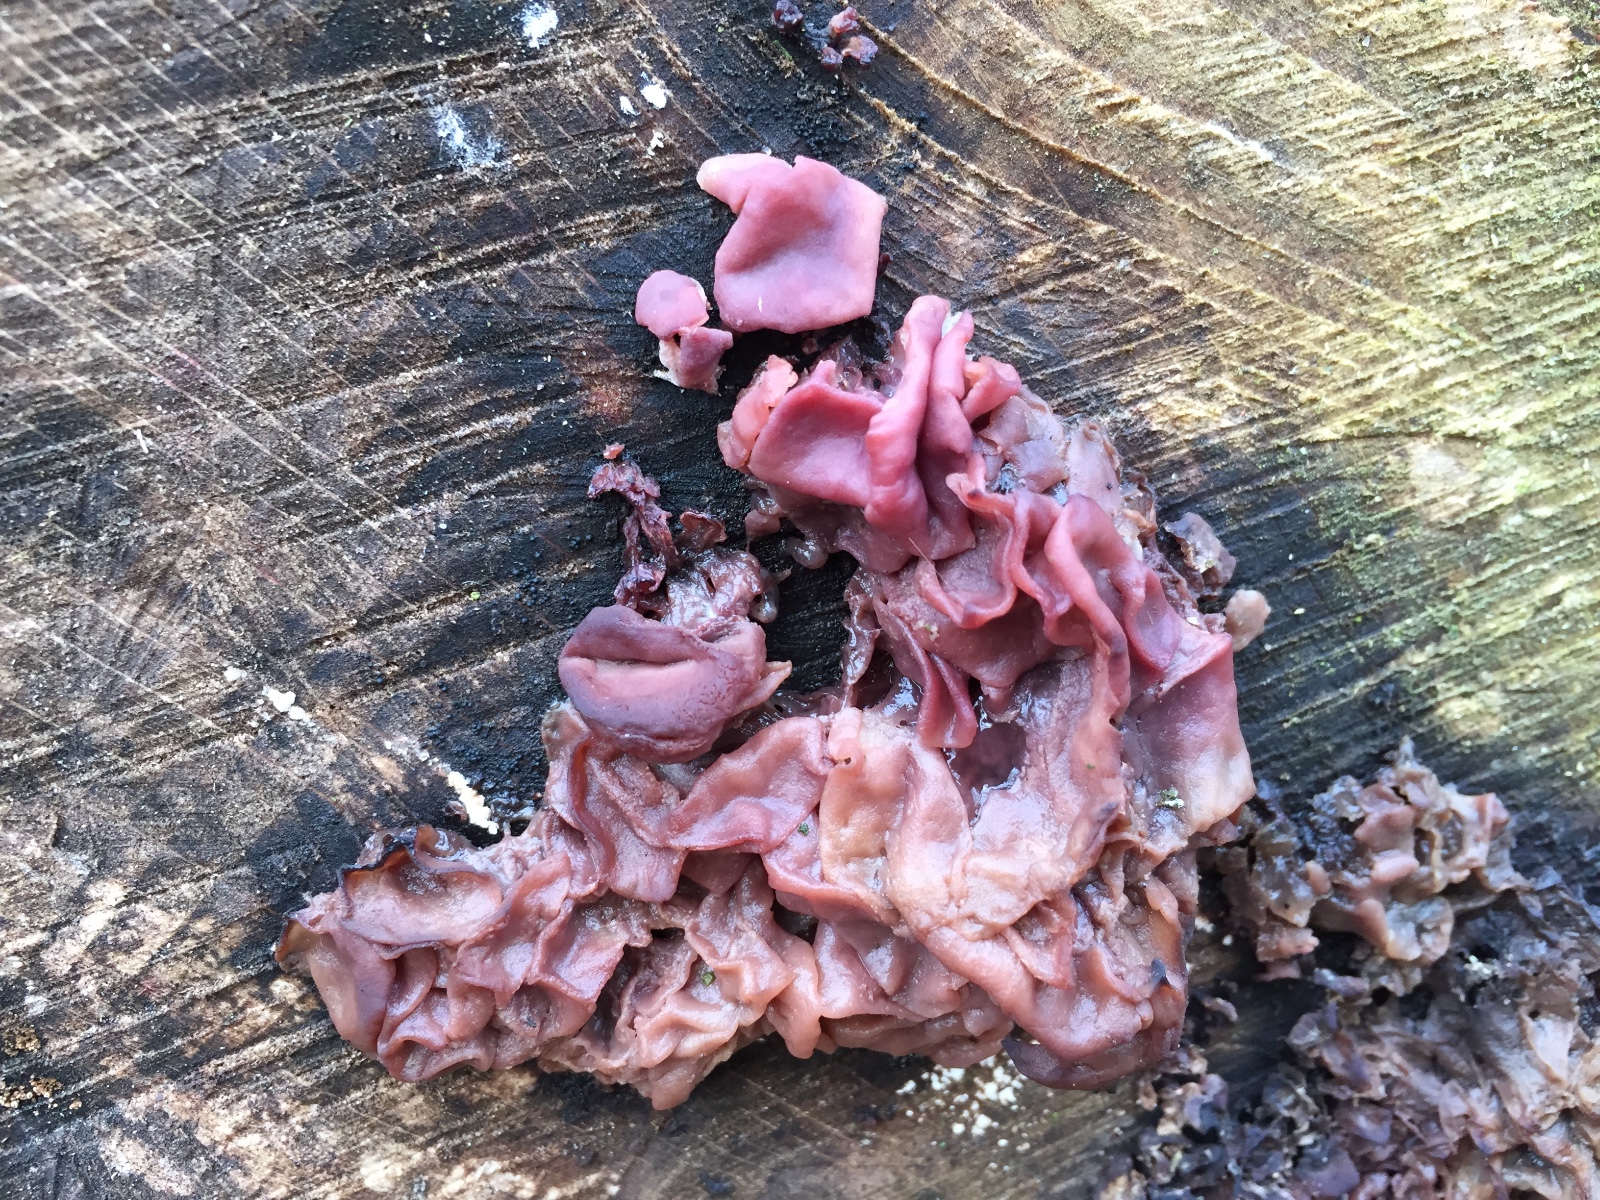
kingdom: Fungi
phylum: Ascomycota
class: Leotiomycetes
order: Helotiales
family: Gelatinodiscaceae
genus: Ascocoryne
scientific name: Ascocoryne cylichnium
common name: stor sejskive
